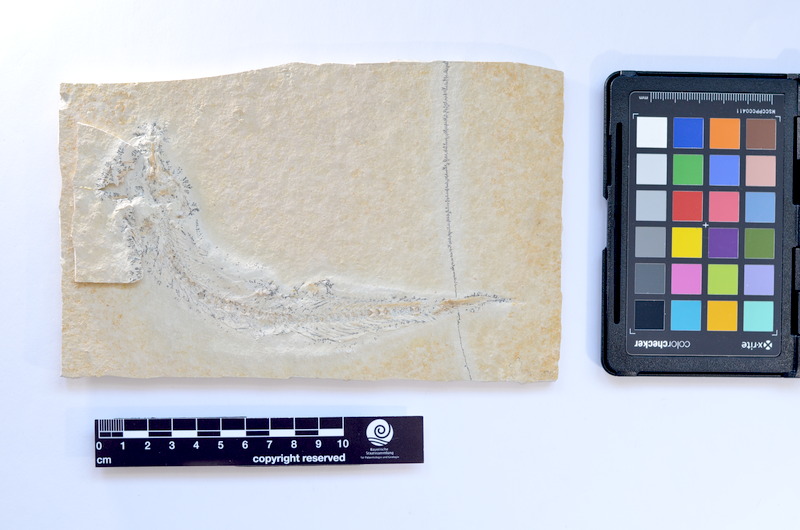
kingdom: Animalia
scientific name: Animalia
